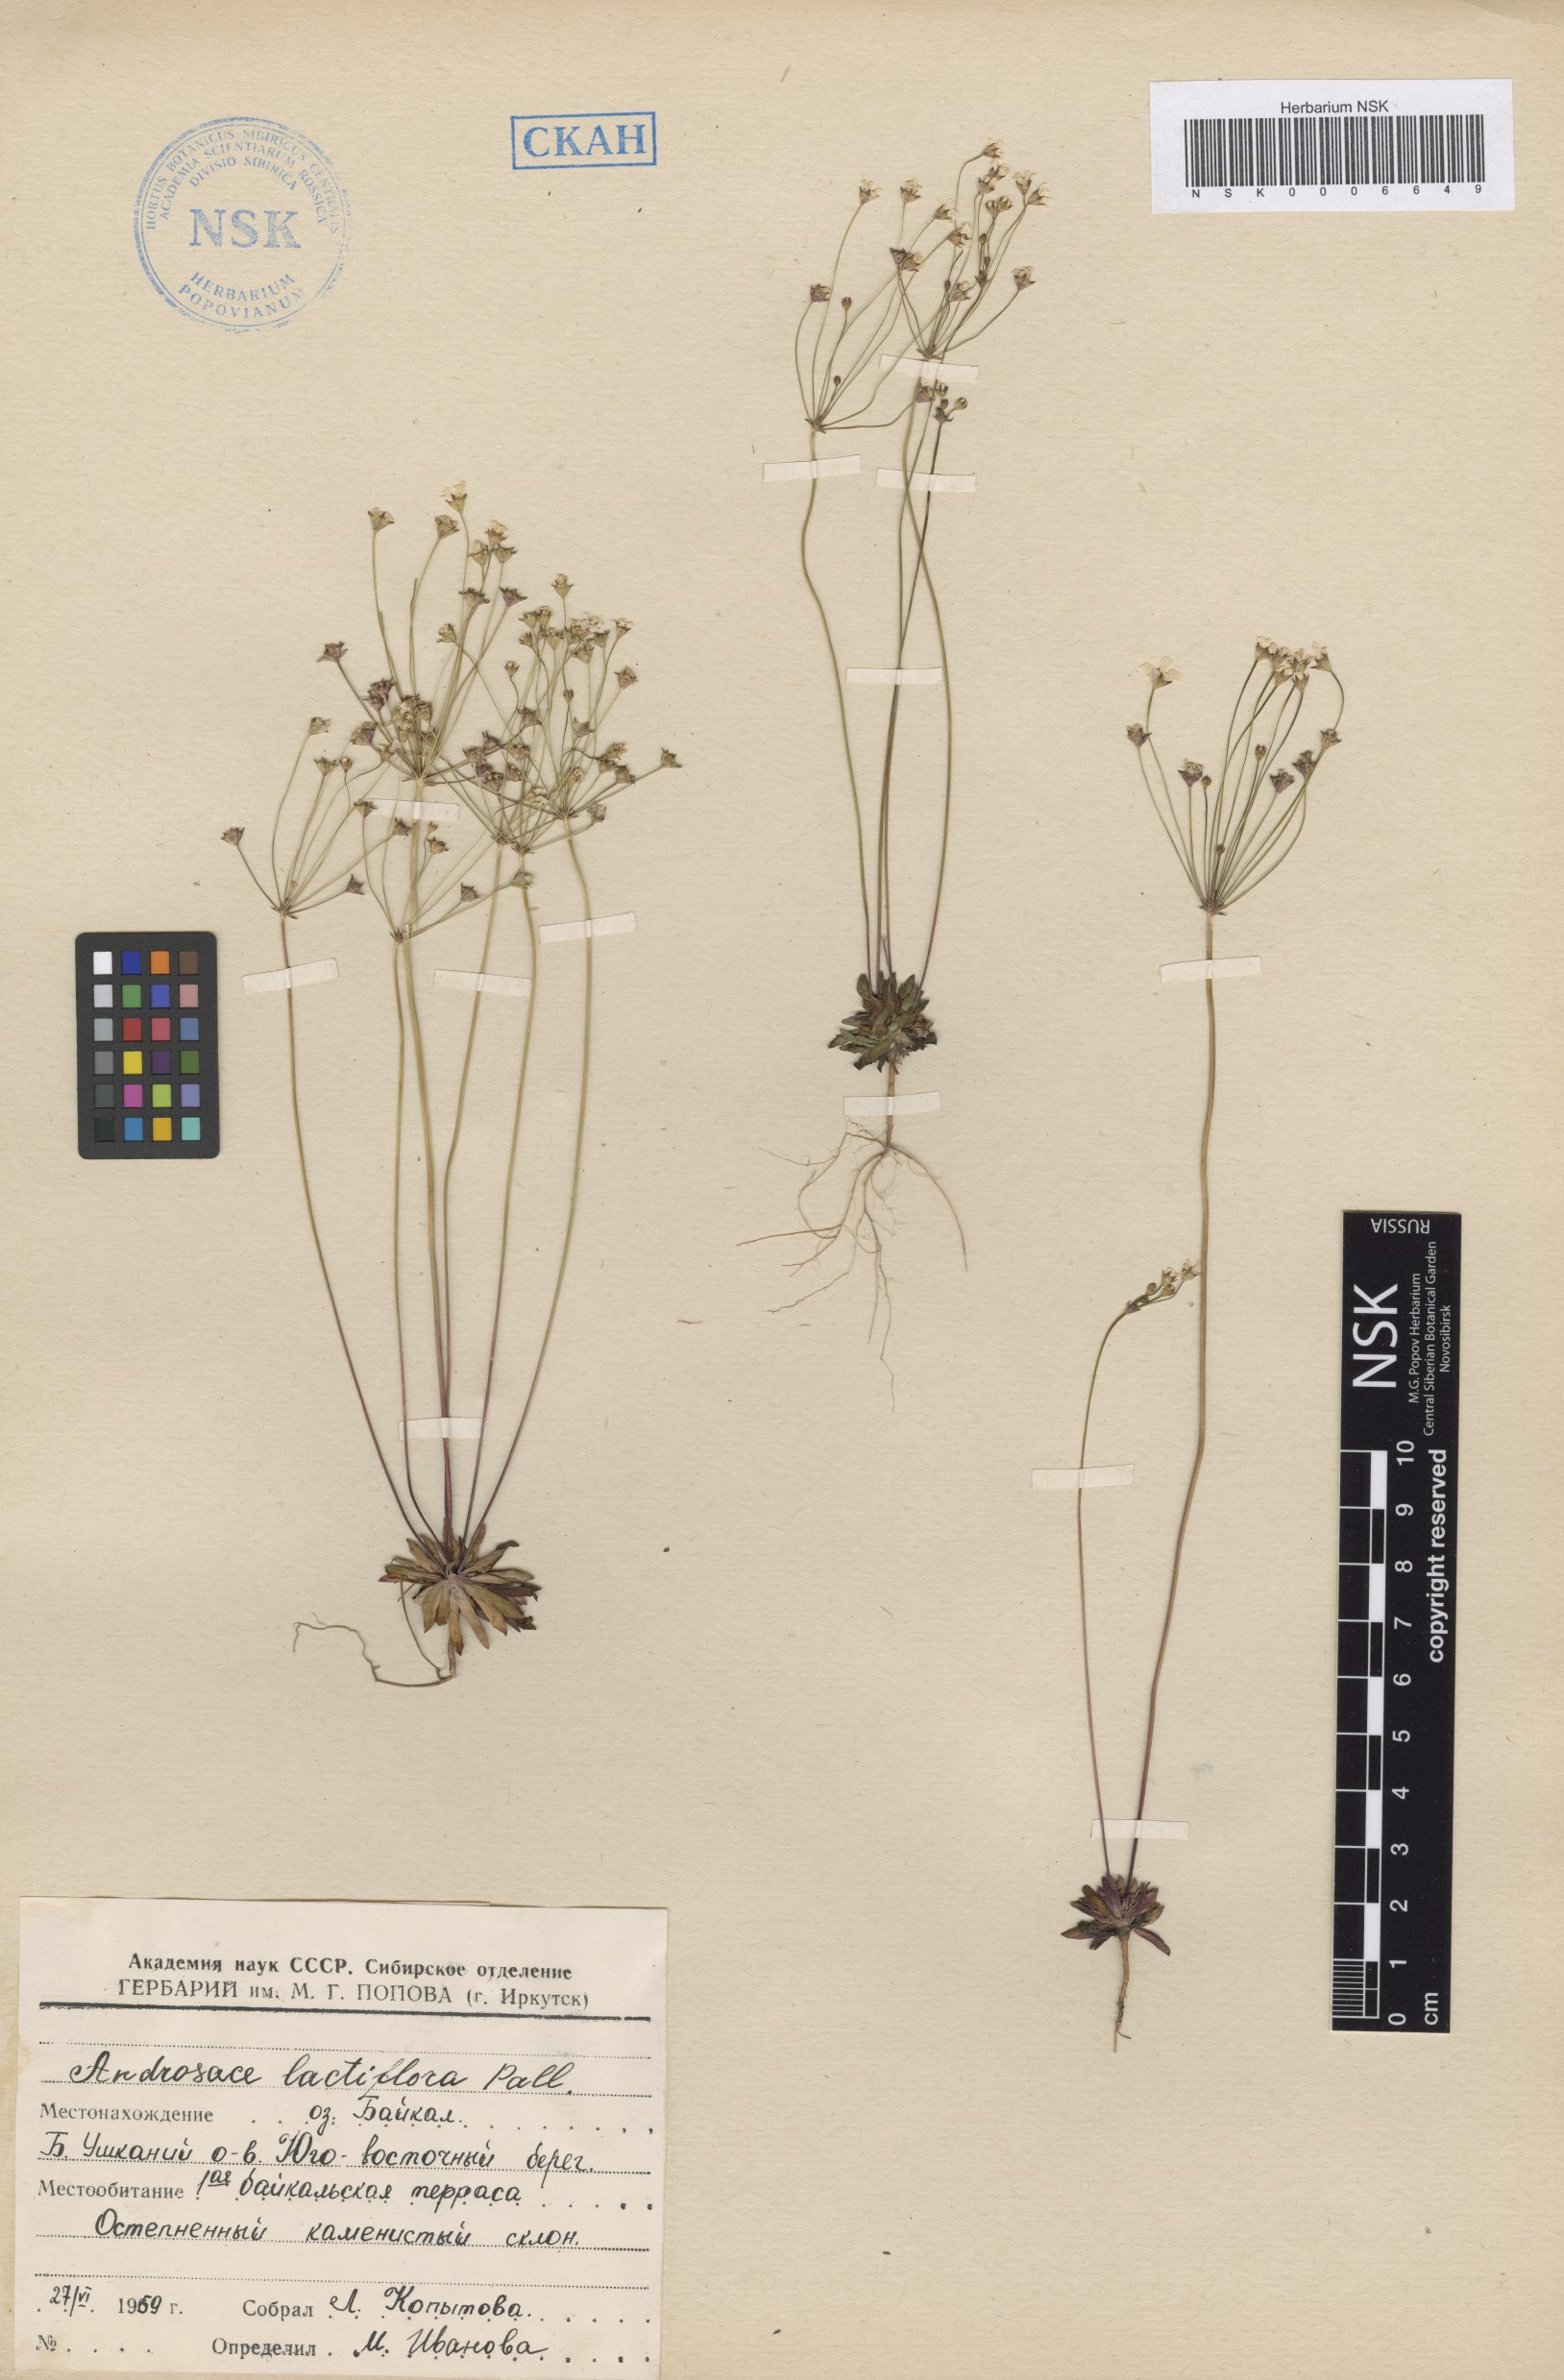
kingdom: Plantae
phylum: Tracheophyta
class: Magnoliopsida
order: Ericales
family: Primulaceae
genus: Androsace
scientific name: Androsace lactiflora
